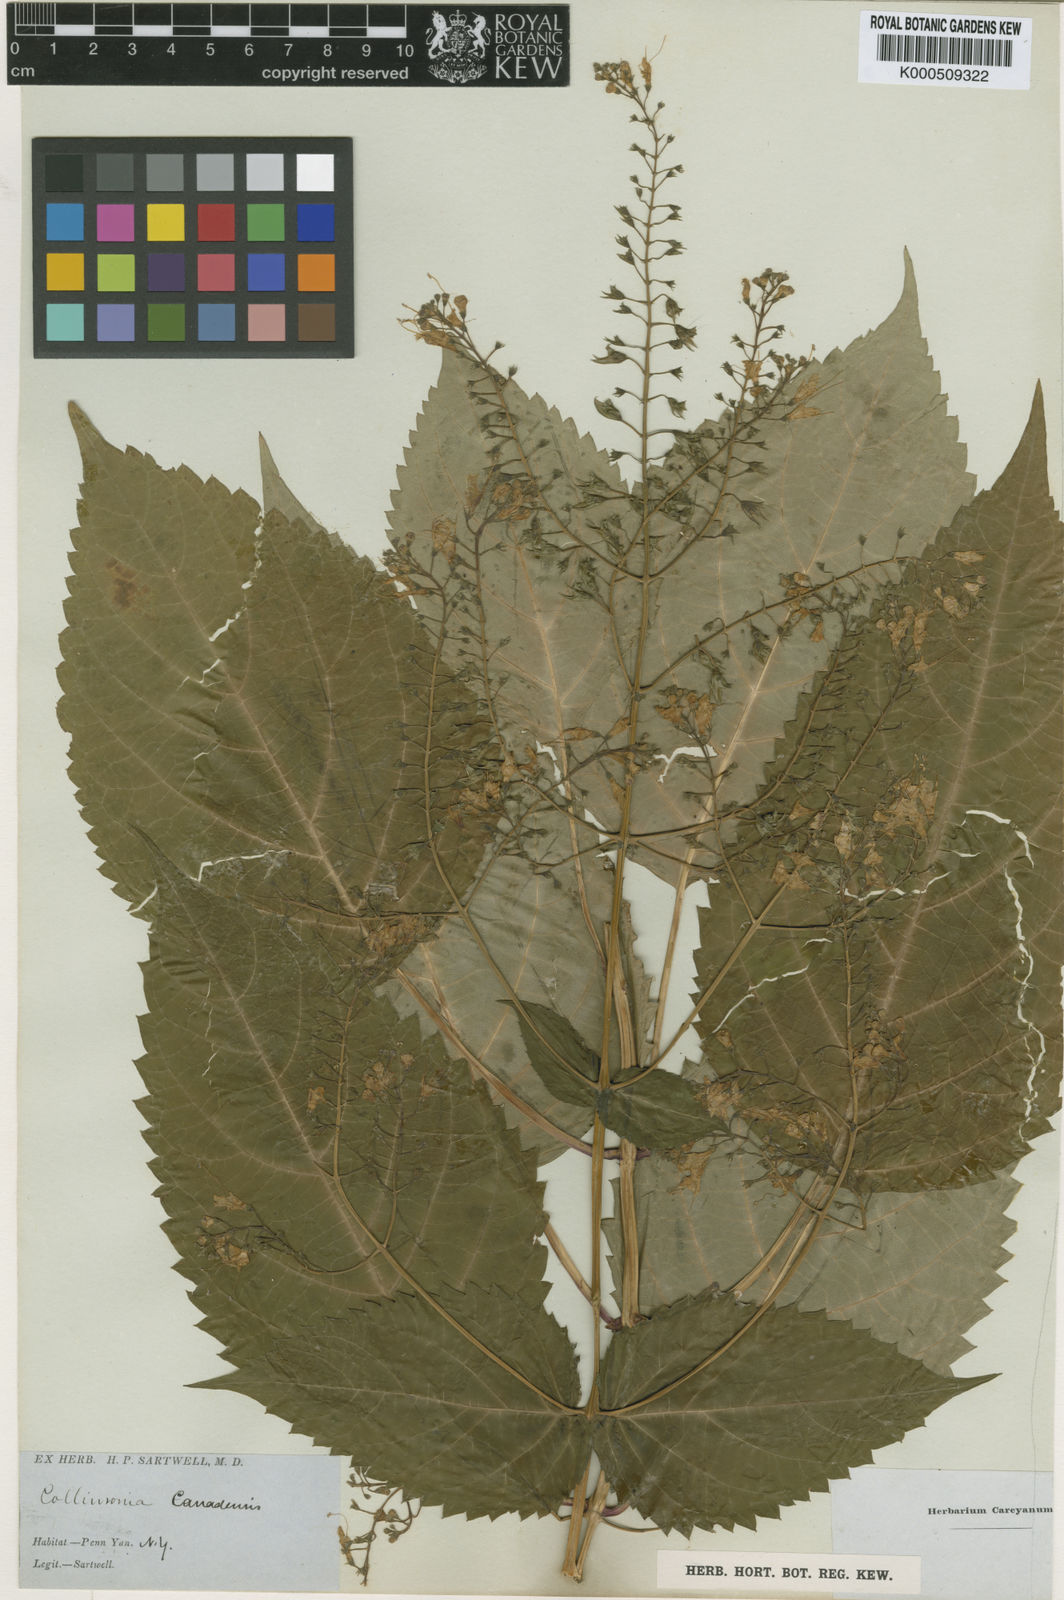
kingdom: Plantae
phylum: Tracheophyta
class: Magnoliopsida
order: Lamiales
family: Lamiaceae
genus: Collinsonia
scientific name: Collinsonia canadensis
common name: Northern horsebalm
